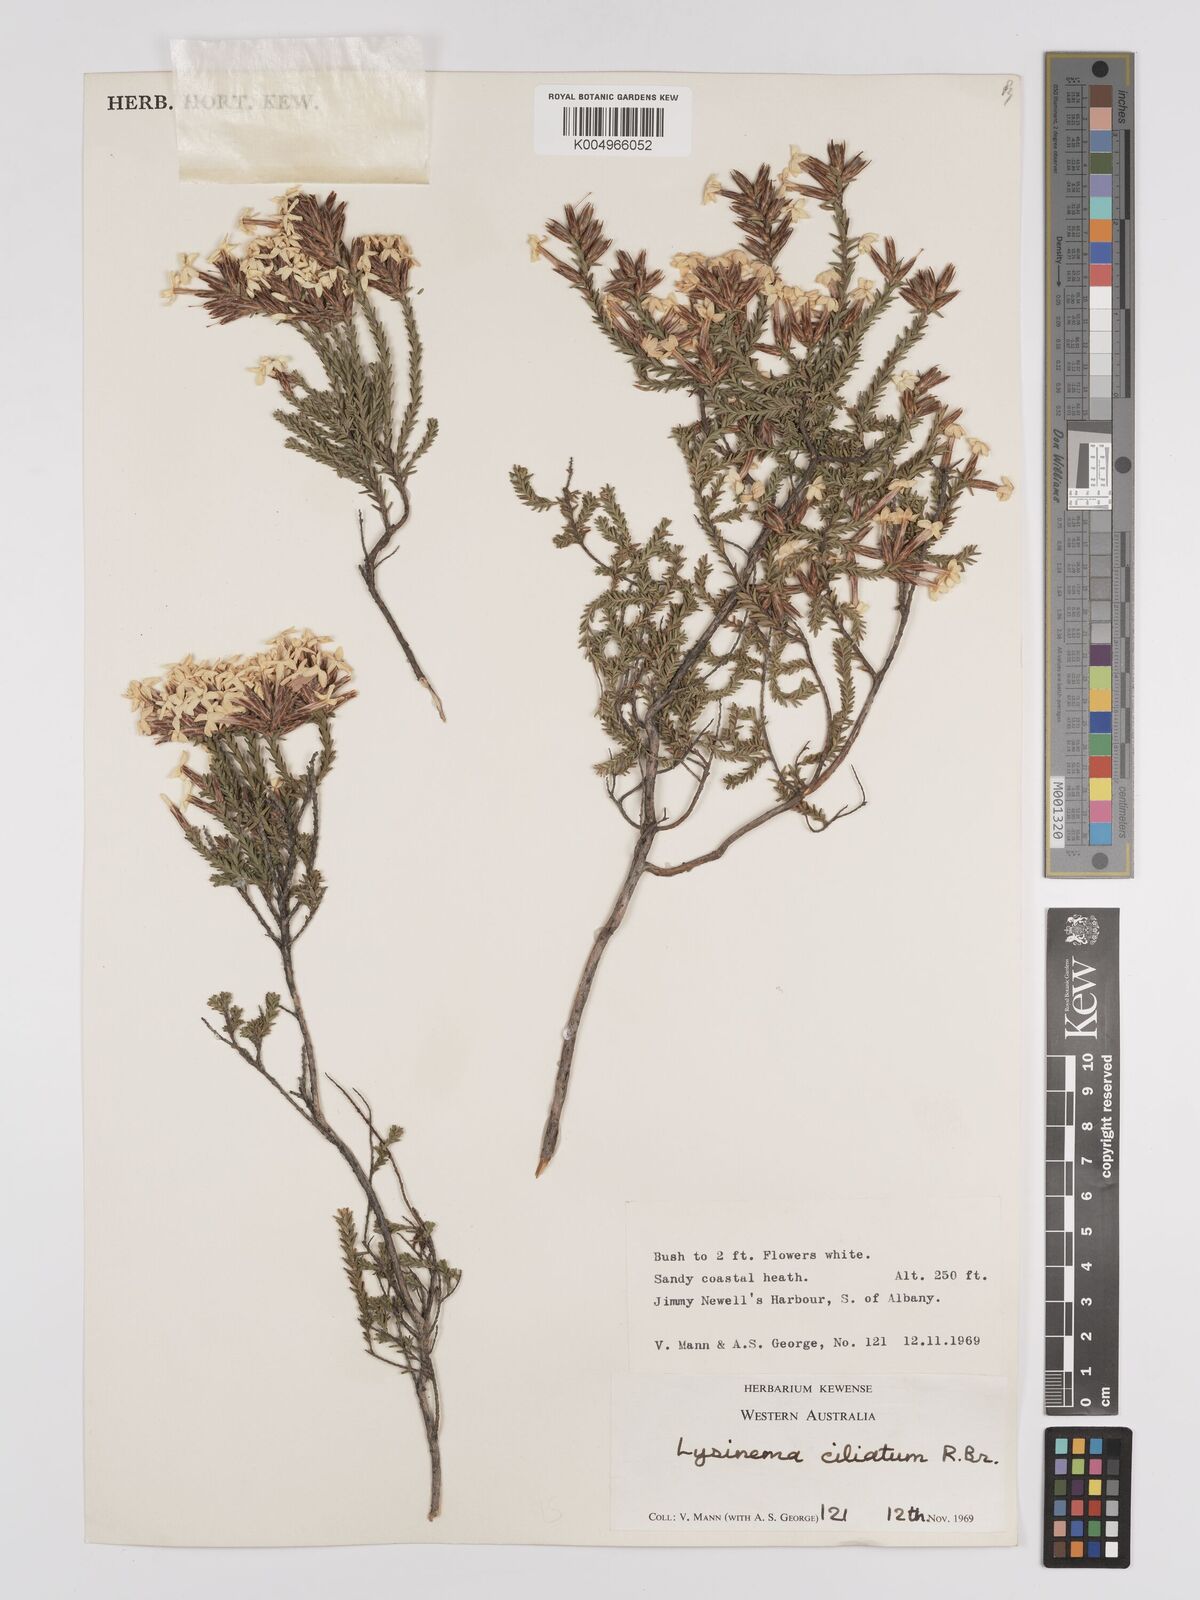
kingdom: Plantae
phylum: Tracheophyta
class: Magnoliopsida
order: Ericales
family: Ericaceae
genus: Lysinema
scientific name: Lysinema ciliatum
